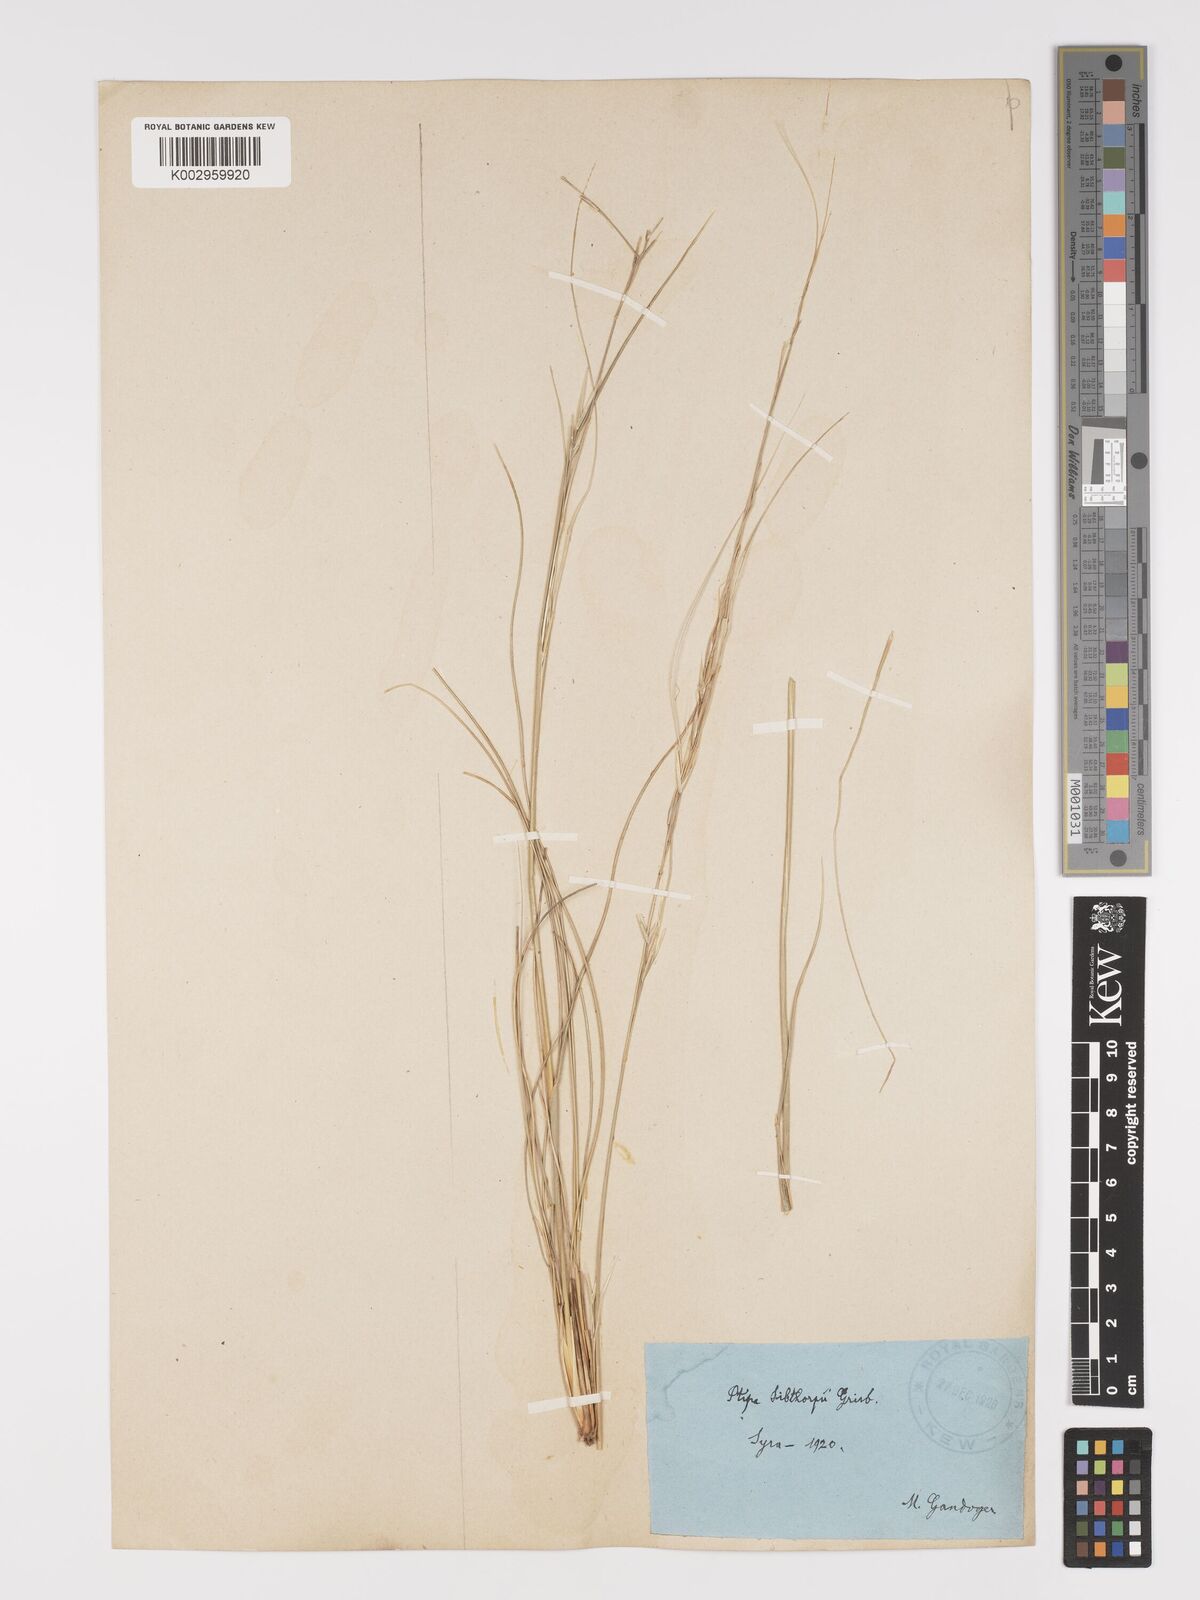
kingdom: Plantae
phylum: Tracheophyta
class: Liliopsida
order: Poales
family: Poaceae
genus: Stipa
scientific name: Stipa
